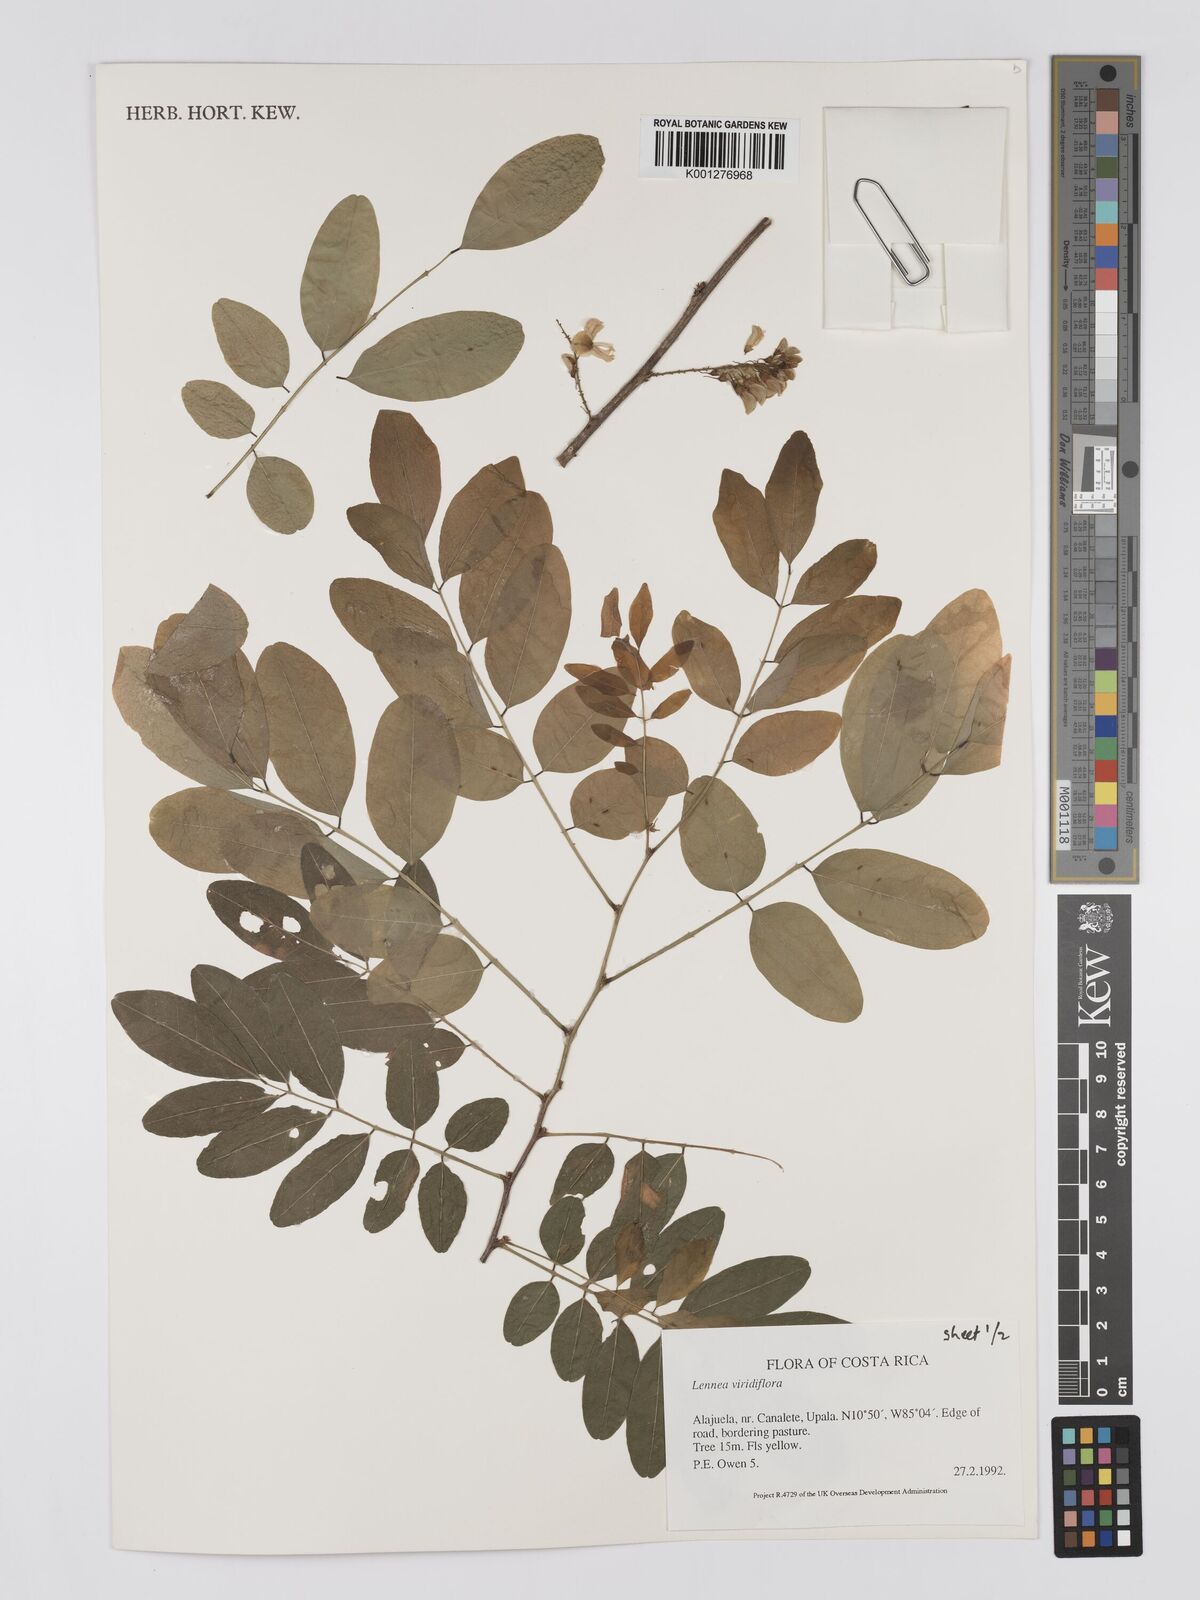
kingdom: Plantae
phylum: Tracheophyta
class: Magnoliopsida
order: Fabales
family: Fabaceae
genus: Lennea
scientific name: Lennea viridiflora
